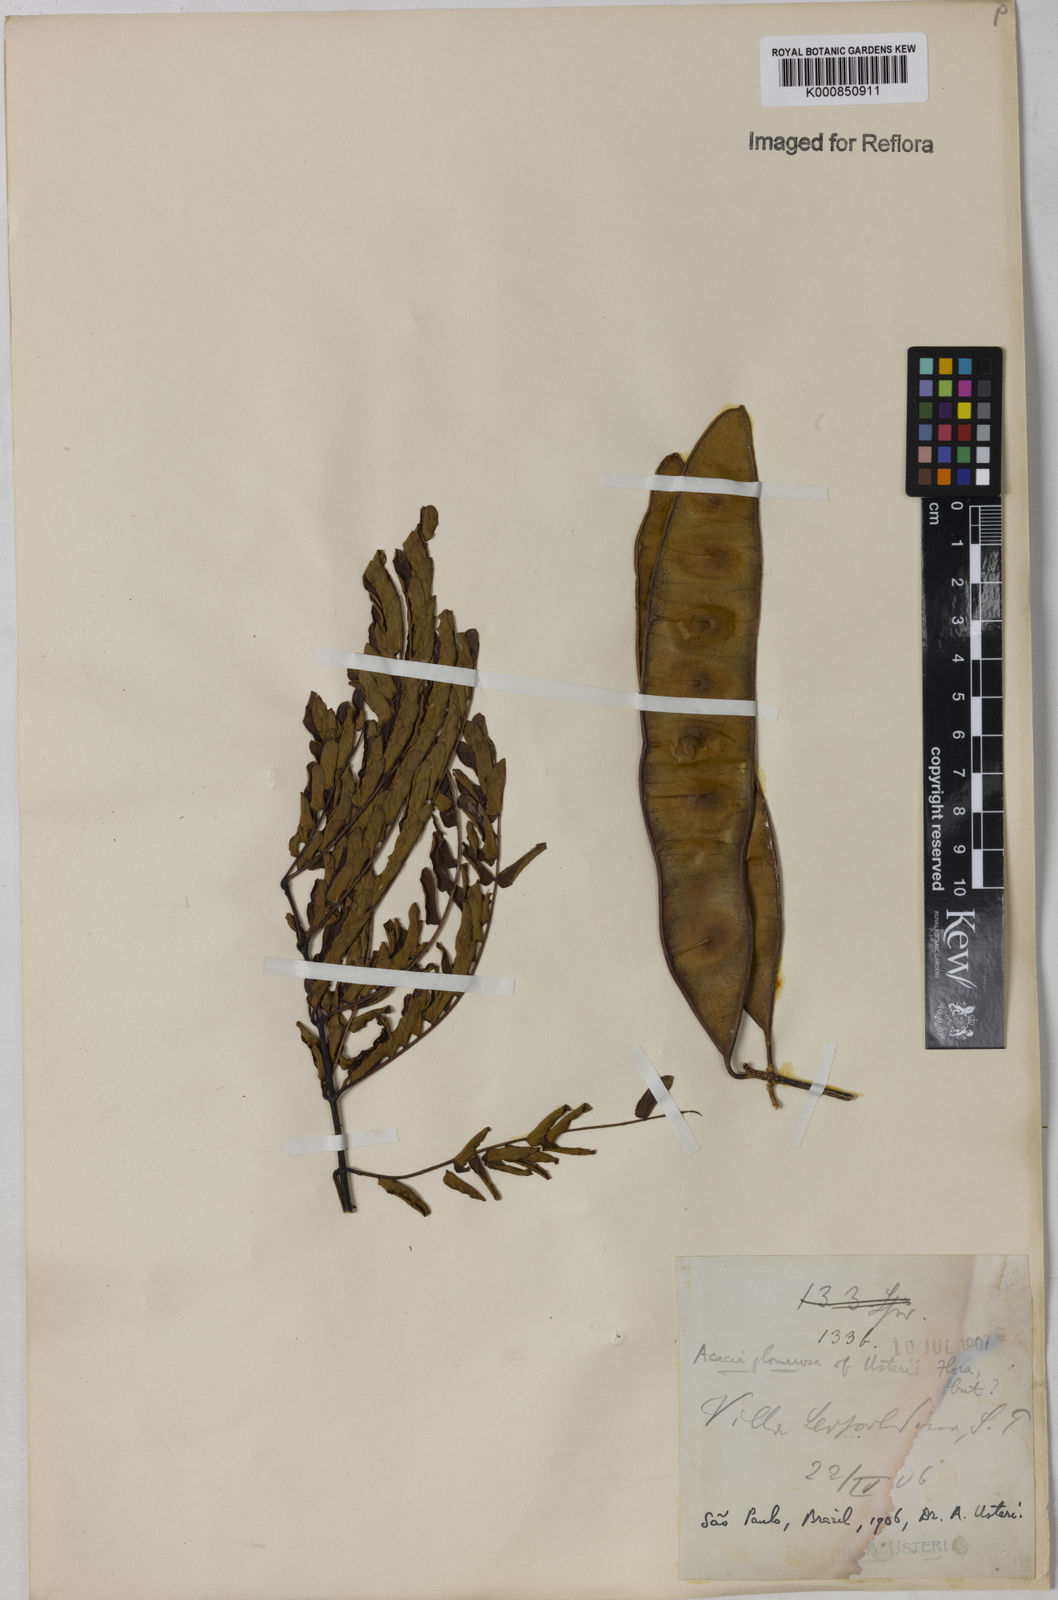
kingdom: Plantae
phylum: Tracheophyta
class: Magnoliopsida
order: Fabales
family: Fabaceae
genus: Senegalia
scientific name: Senegalia polyphylla
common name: White-tamarind
